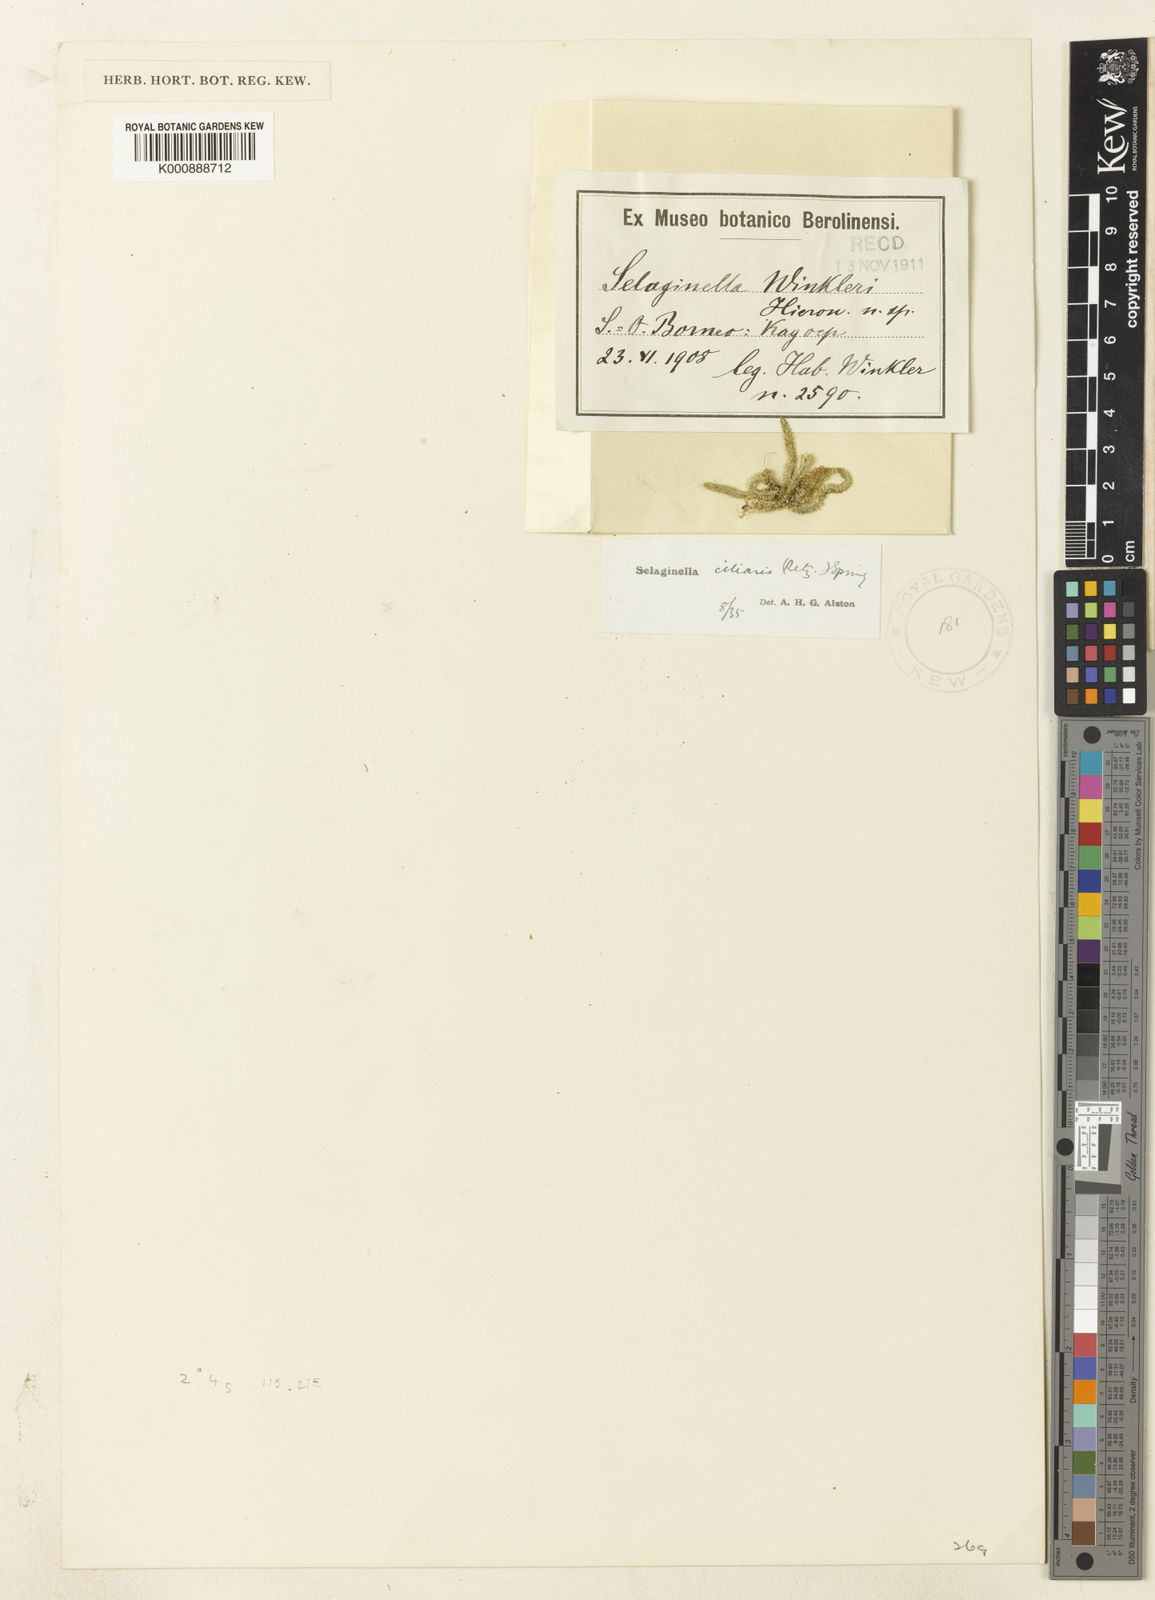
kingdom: Plantae
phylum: Tracheophyta
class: Lycopodiopsida
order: Selaginellales
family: Selaginellaceae
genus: Selaginella
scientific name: Selaginella ciliaris
